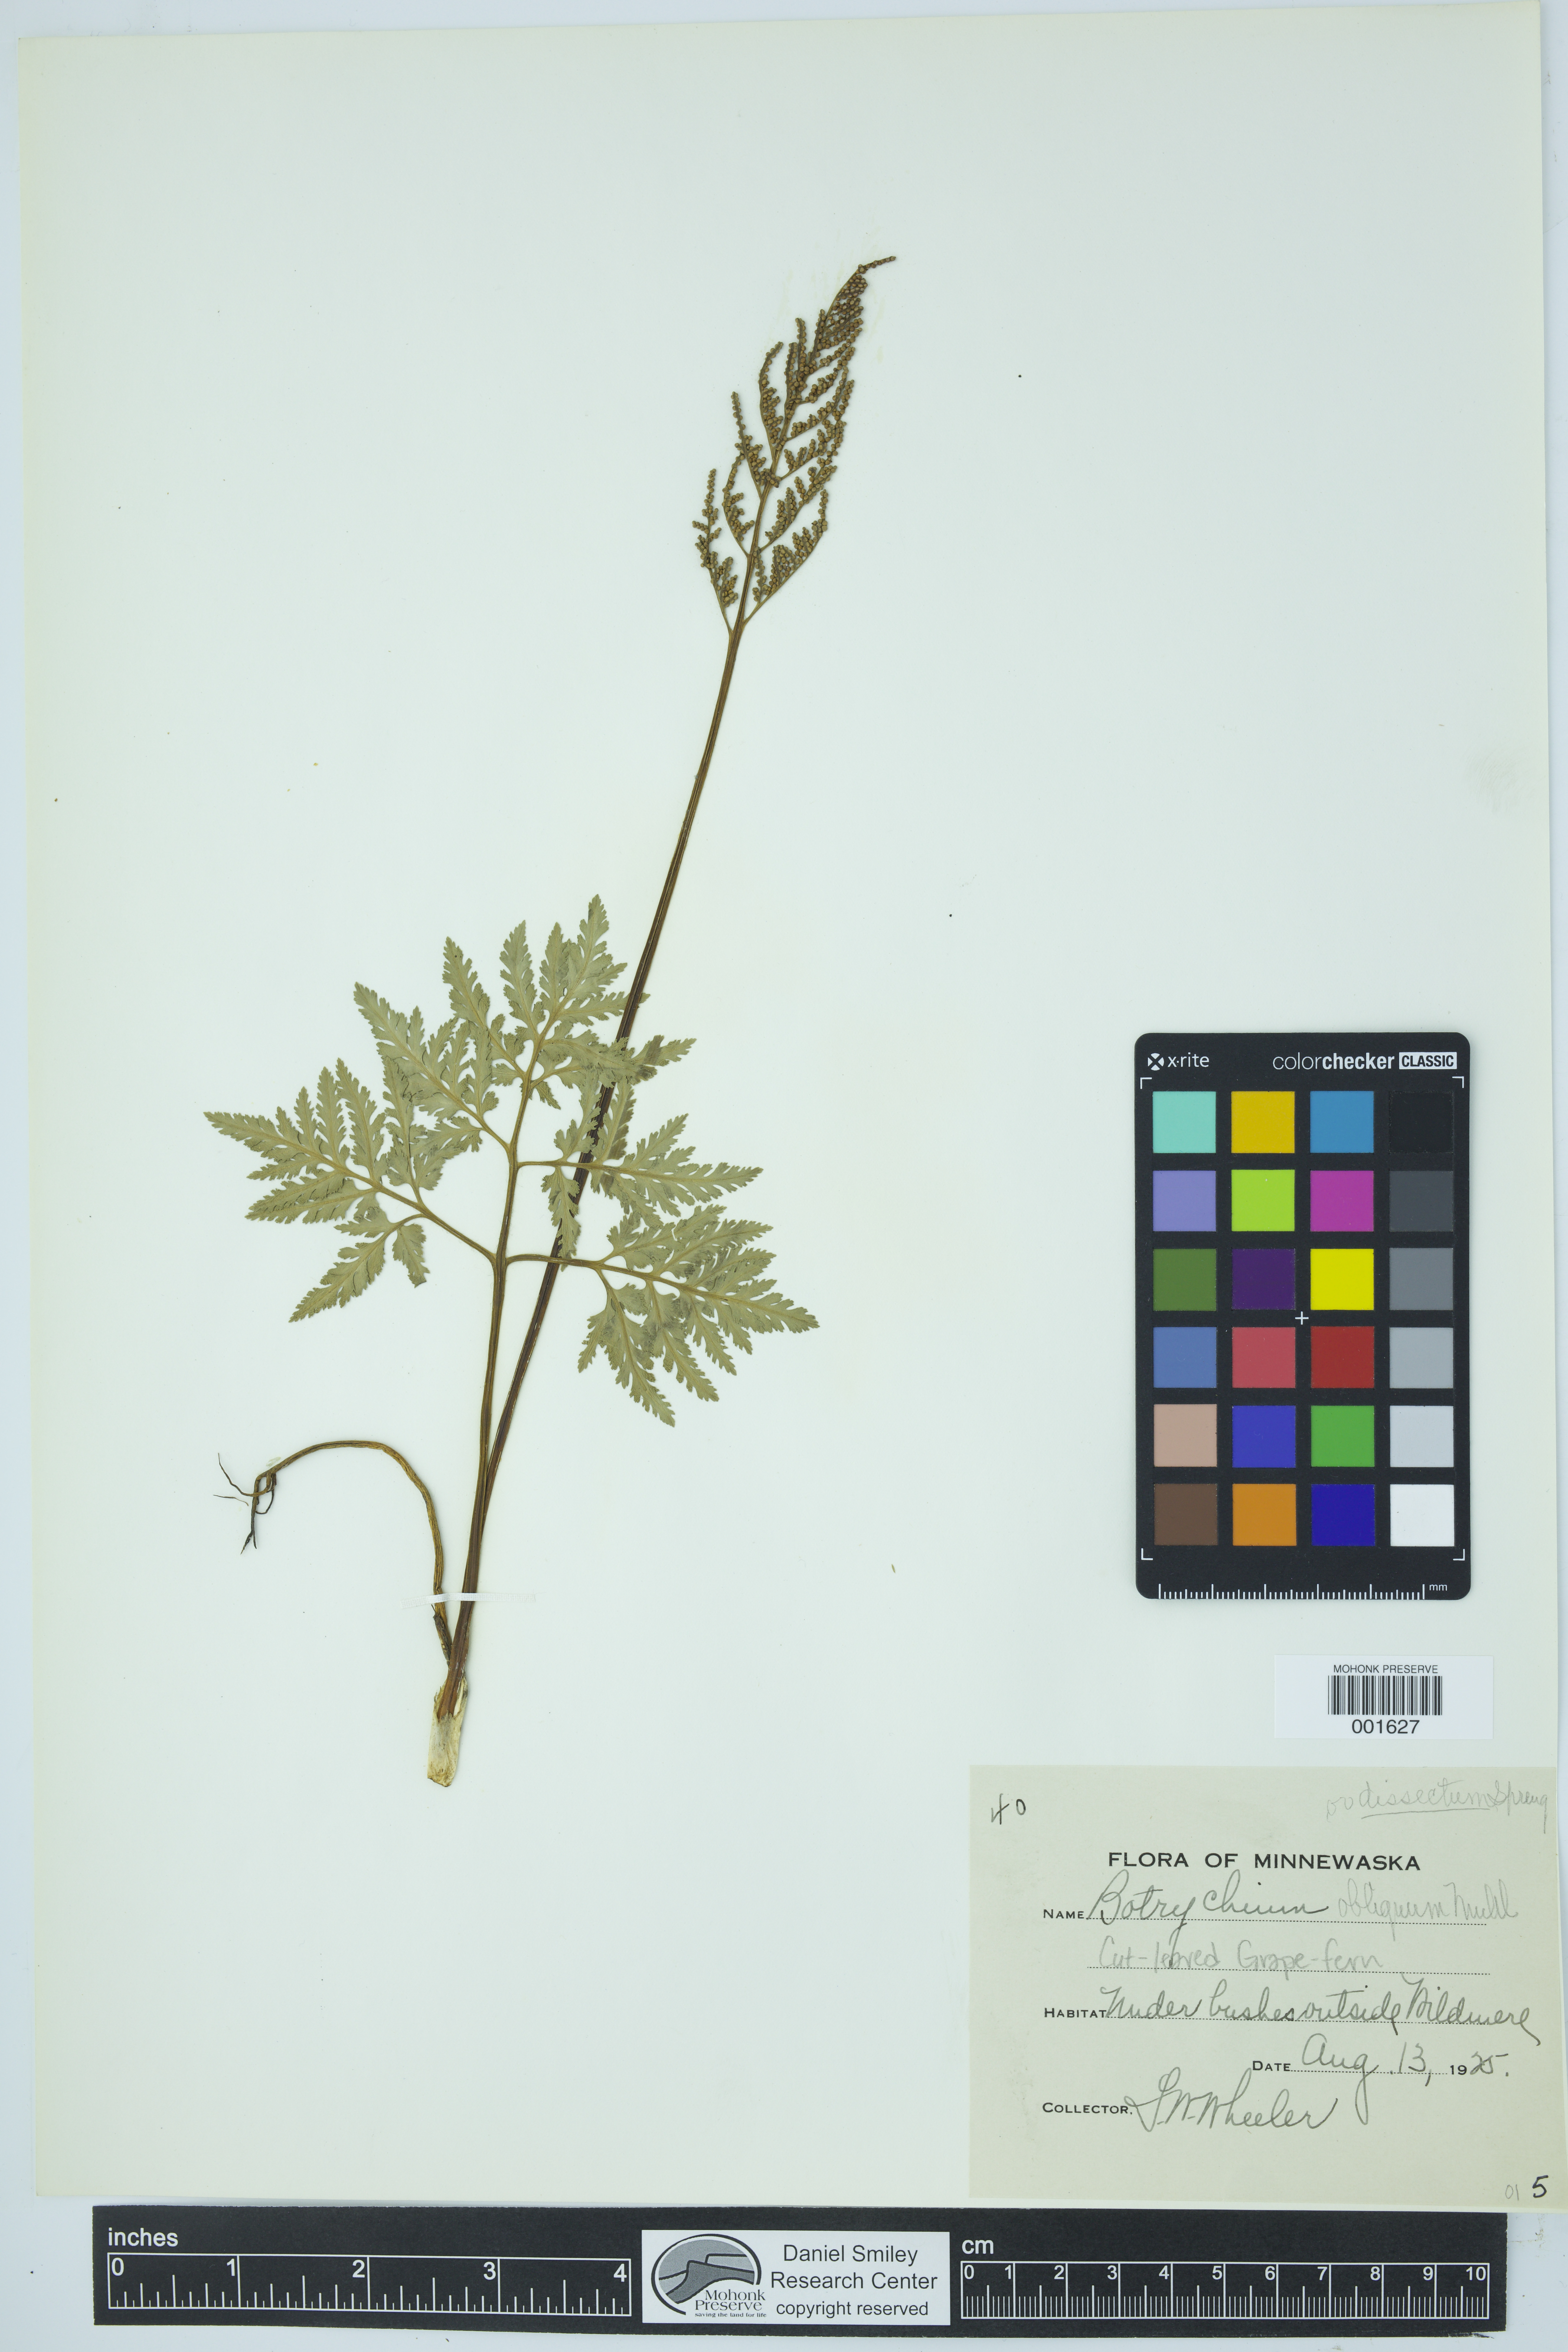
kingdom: Plantae
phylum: Tracheophyta
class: Polypodiopsida
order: Ophioglossales
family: Ophioglossaceae
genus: Sceptridium
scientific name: Sceptridium dissectum
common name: Cut-leaved grapefern
